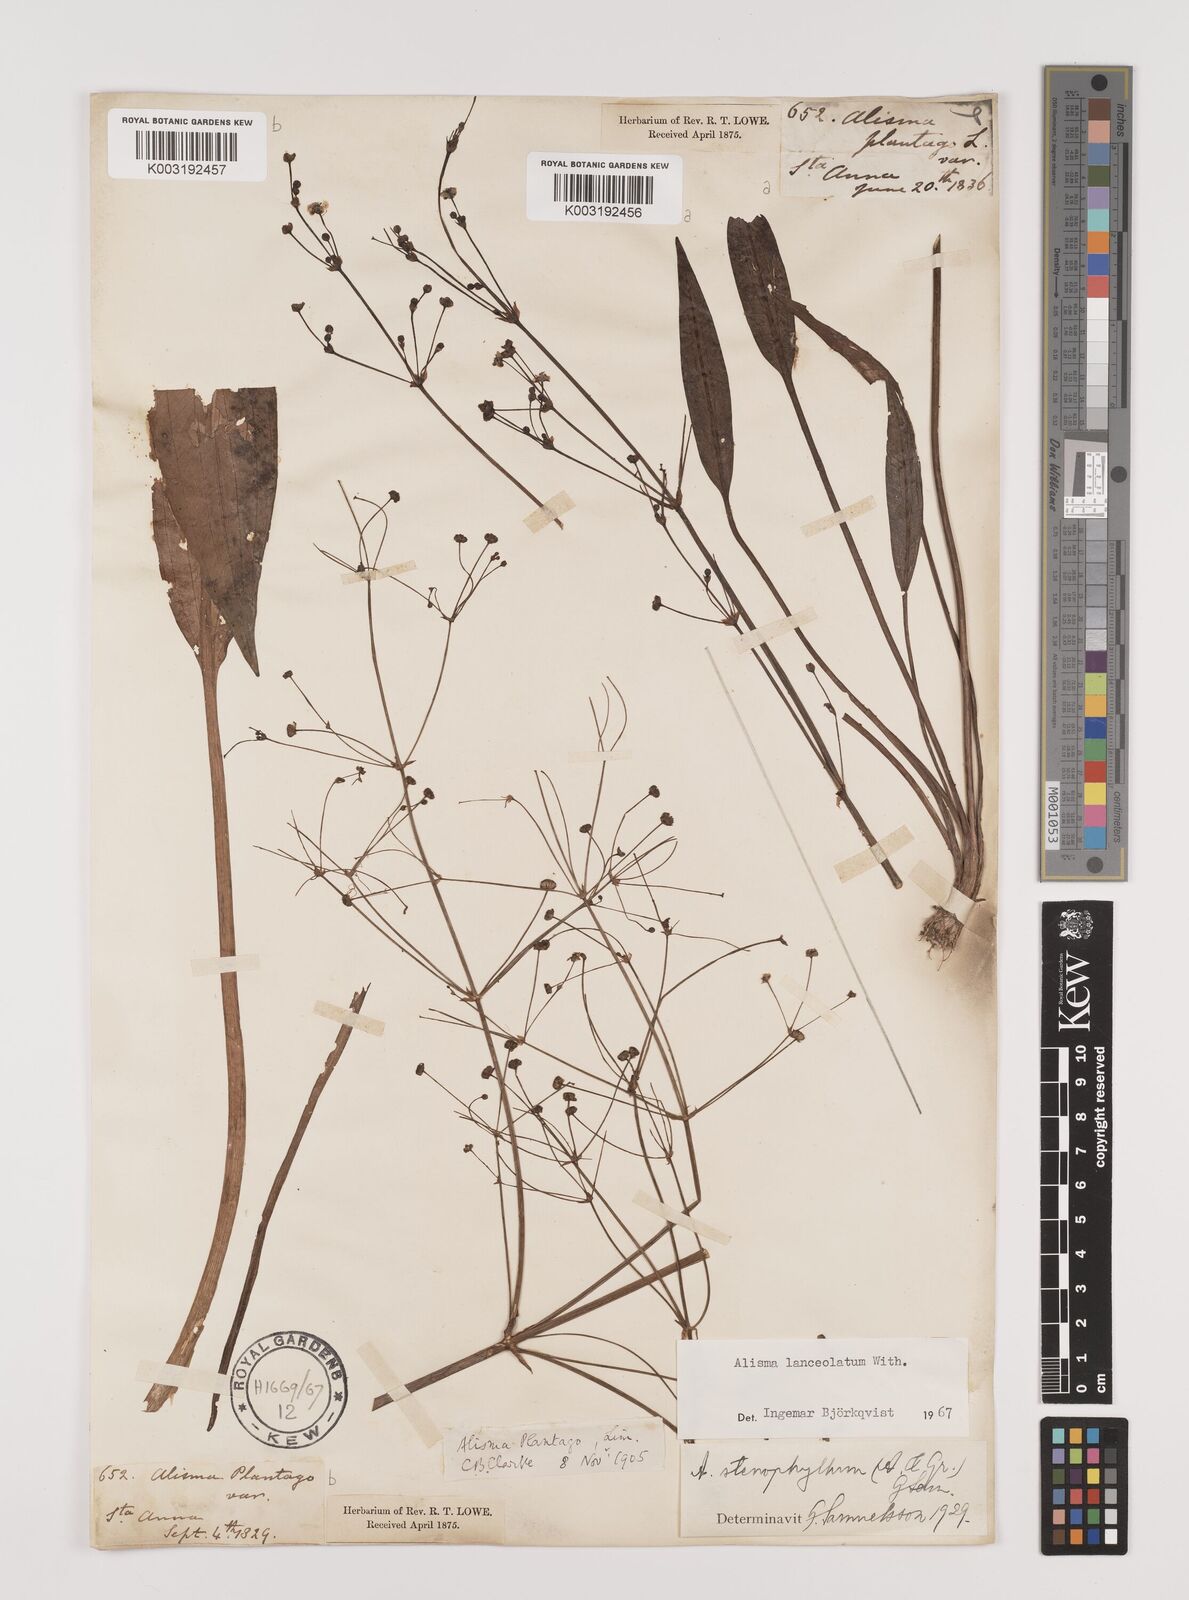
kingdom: Plantae
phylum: Tracheophyta
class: Liliopsida
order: Alismatales
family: Alismataceae
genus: Alisma
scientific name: Alisma lanceolatum
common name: Narrow-leaved water-plantain
